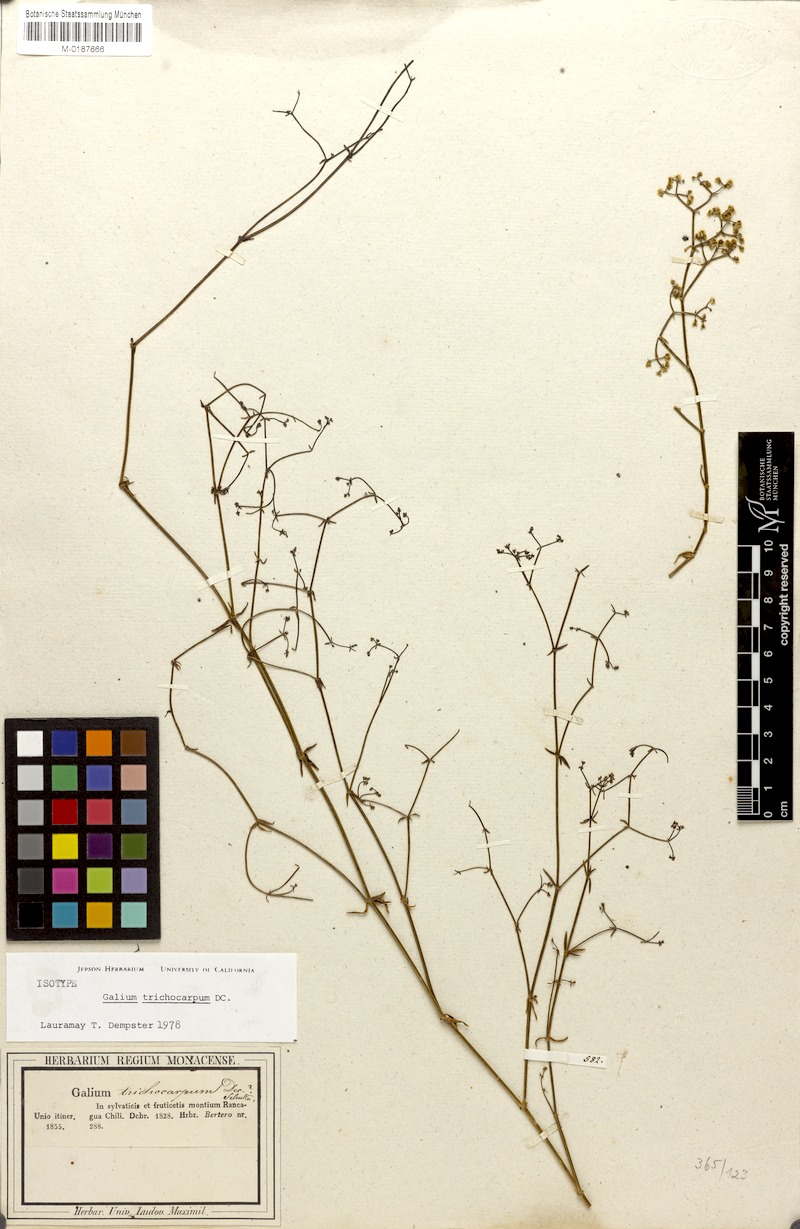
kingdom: Plantae
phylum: Tracheophyta
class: Magnoliopsida
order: Gentianales
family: Rubiaceae
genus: Galium
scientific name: Galium trichocarpum
